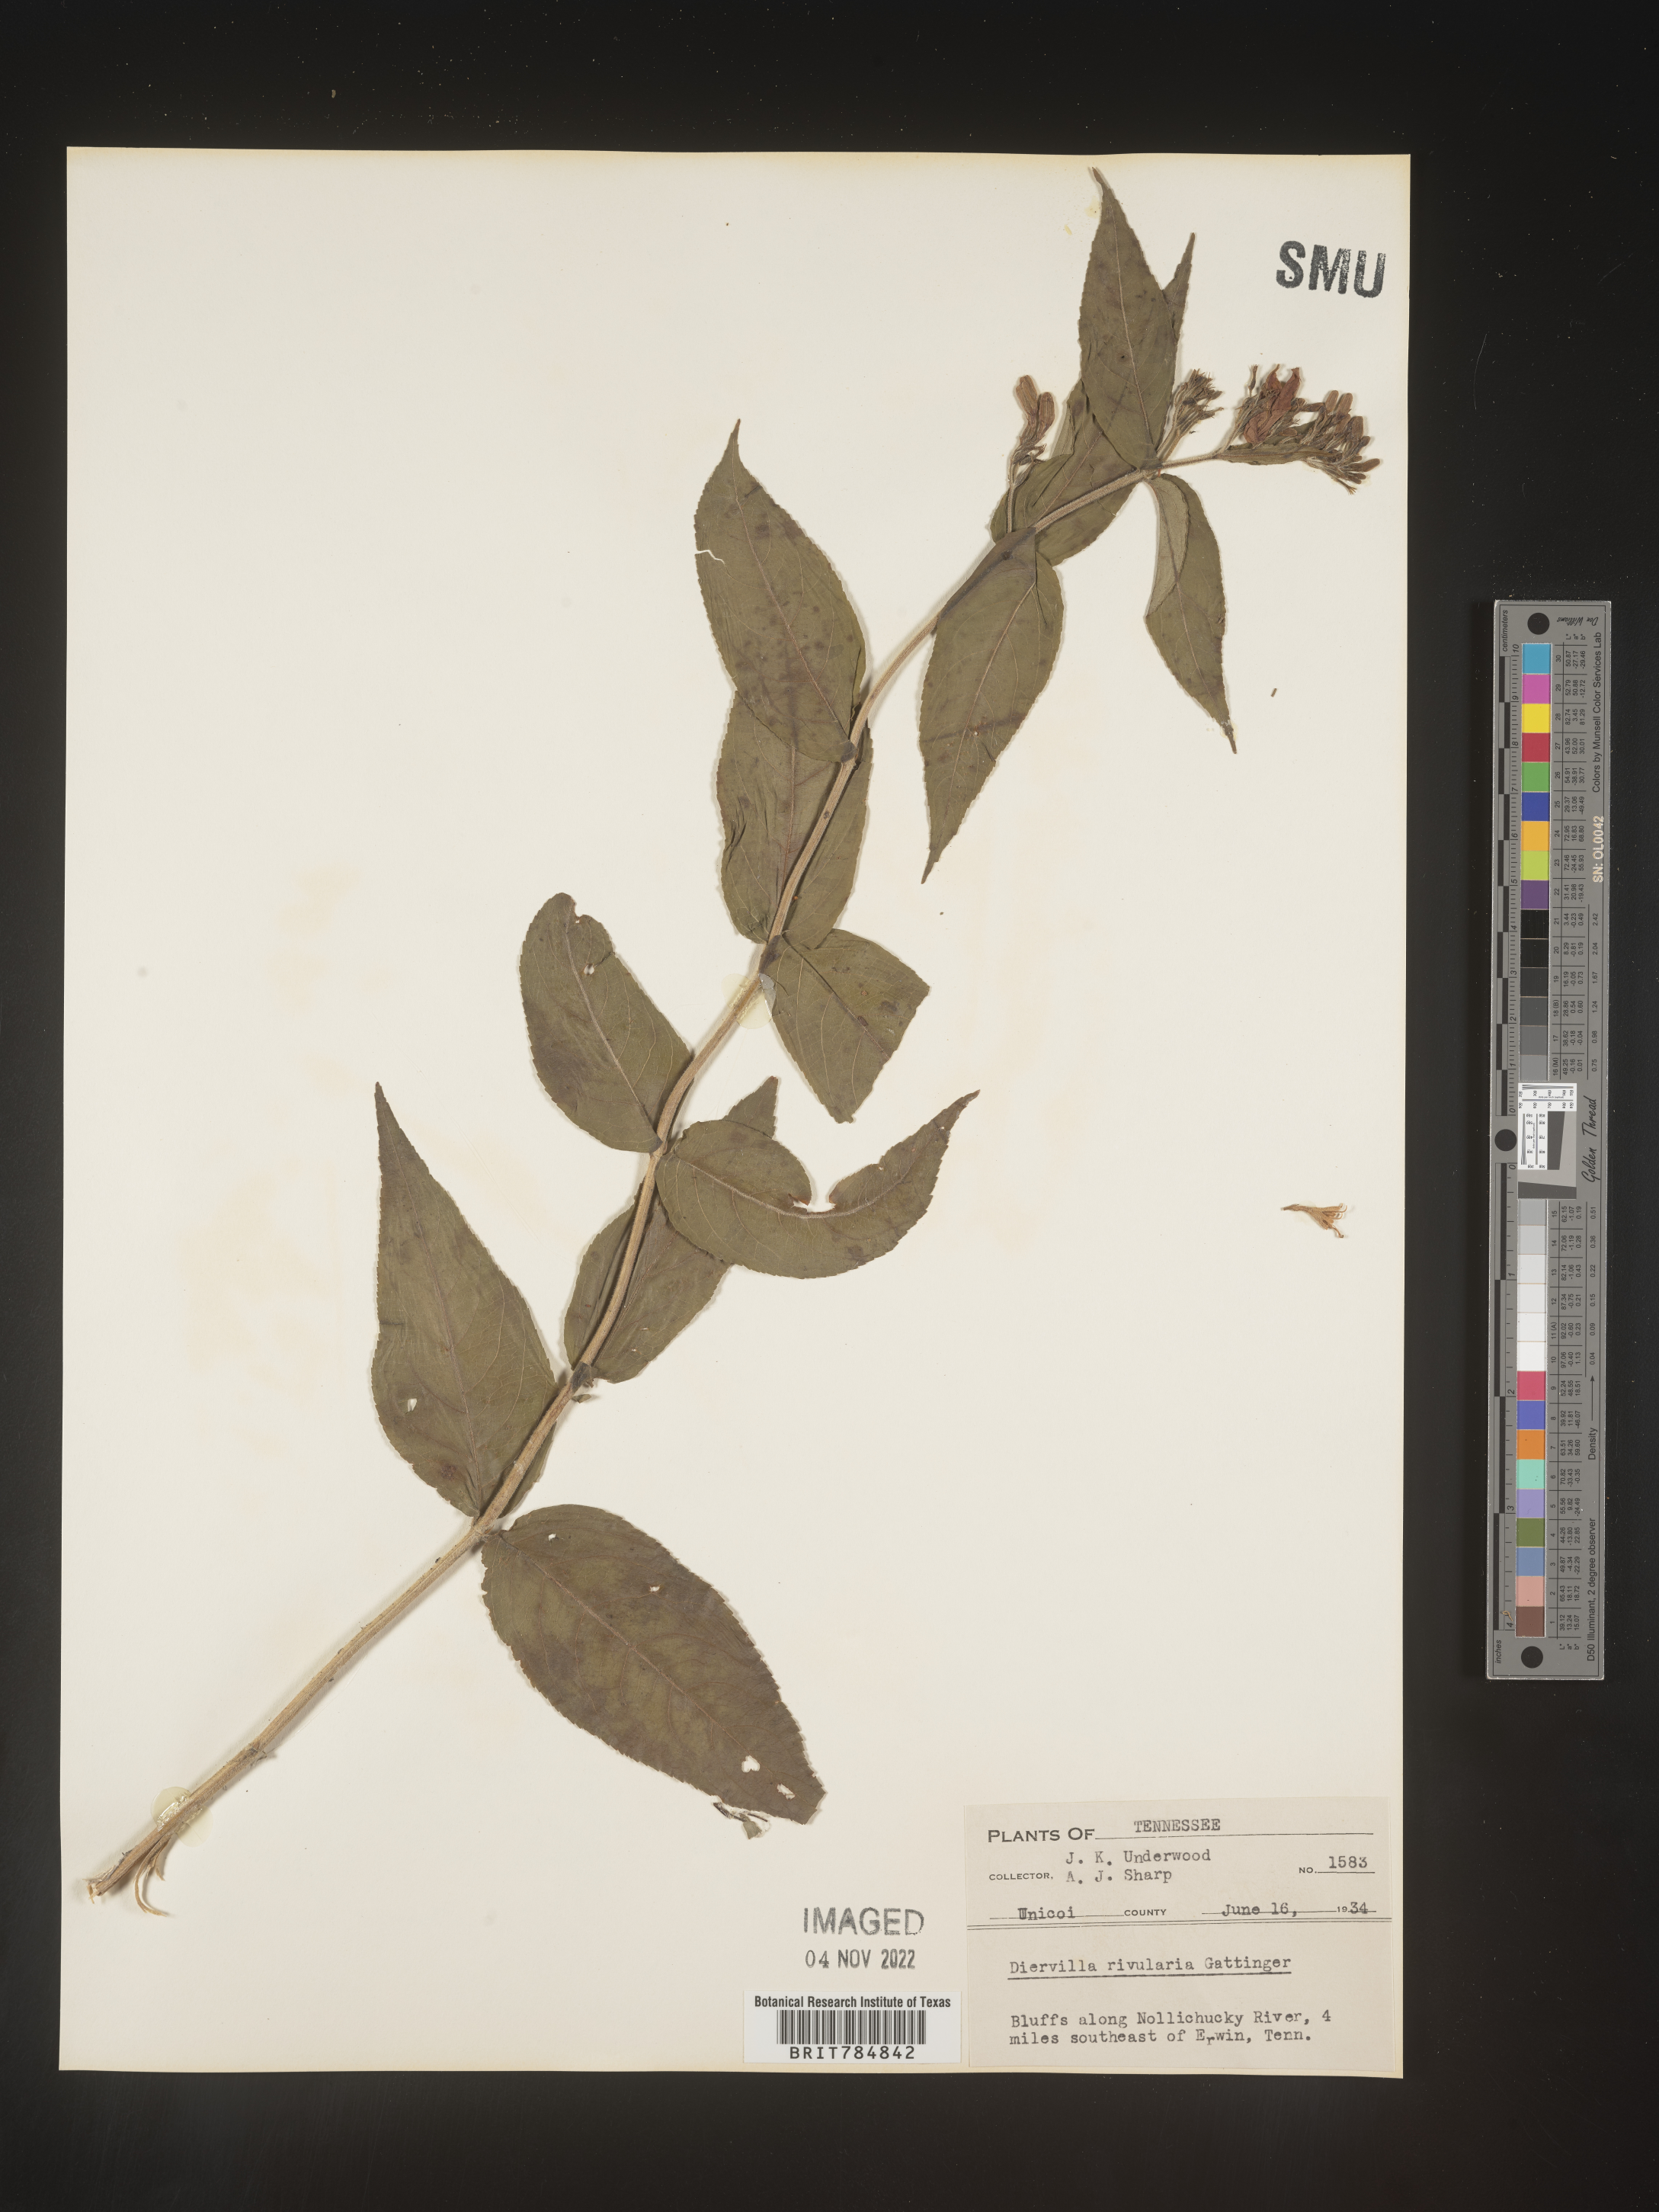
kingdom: Plantae
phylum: Tracheophyta
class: Magnoliopsida
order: Dipsacales
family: Caprifoliaceae
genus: Diervilla
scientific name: Diervilla rivularis
